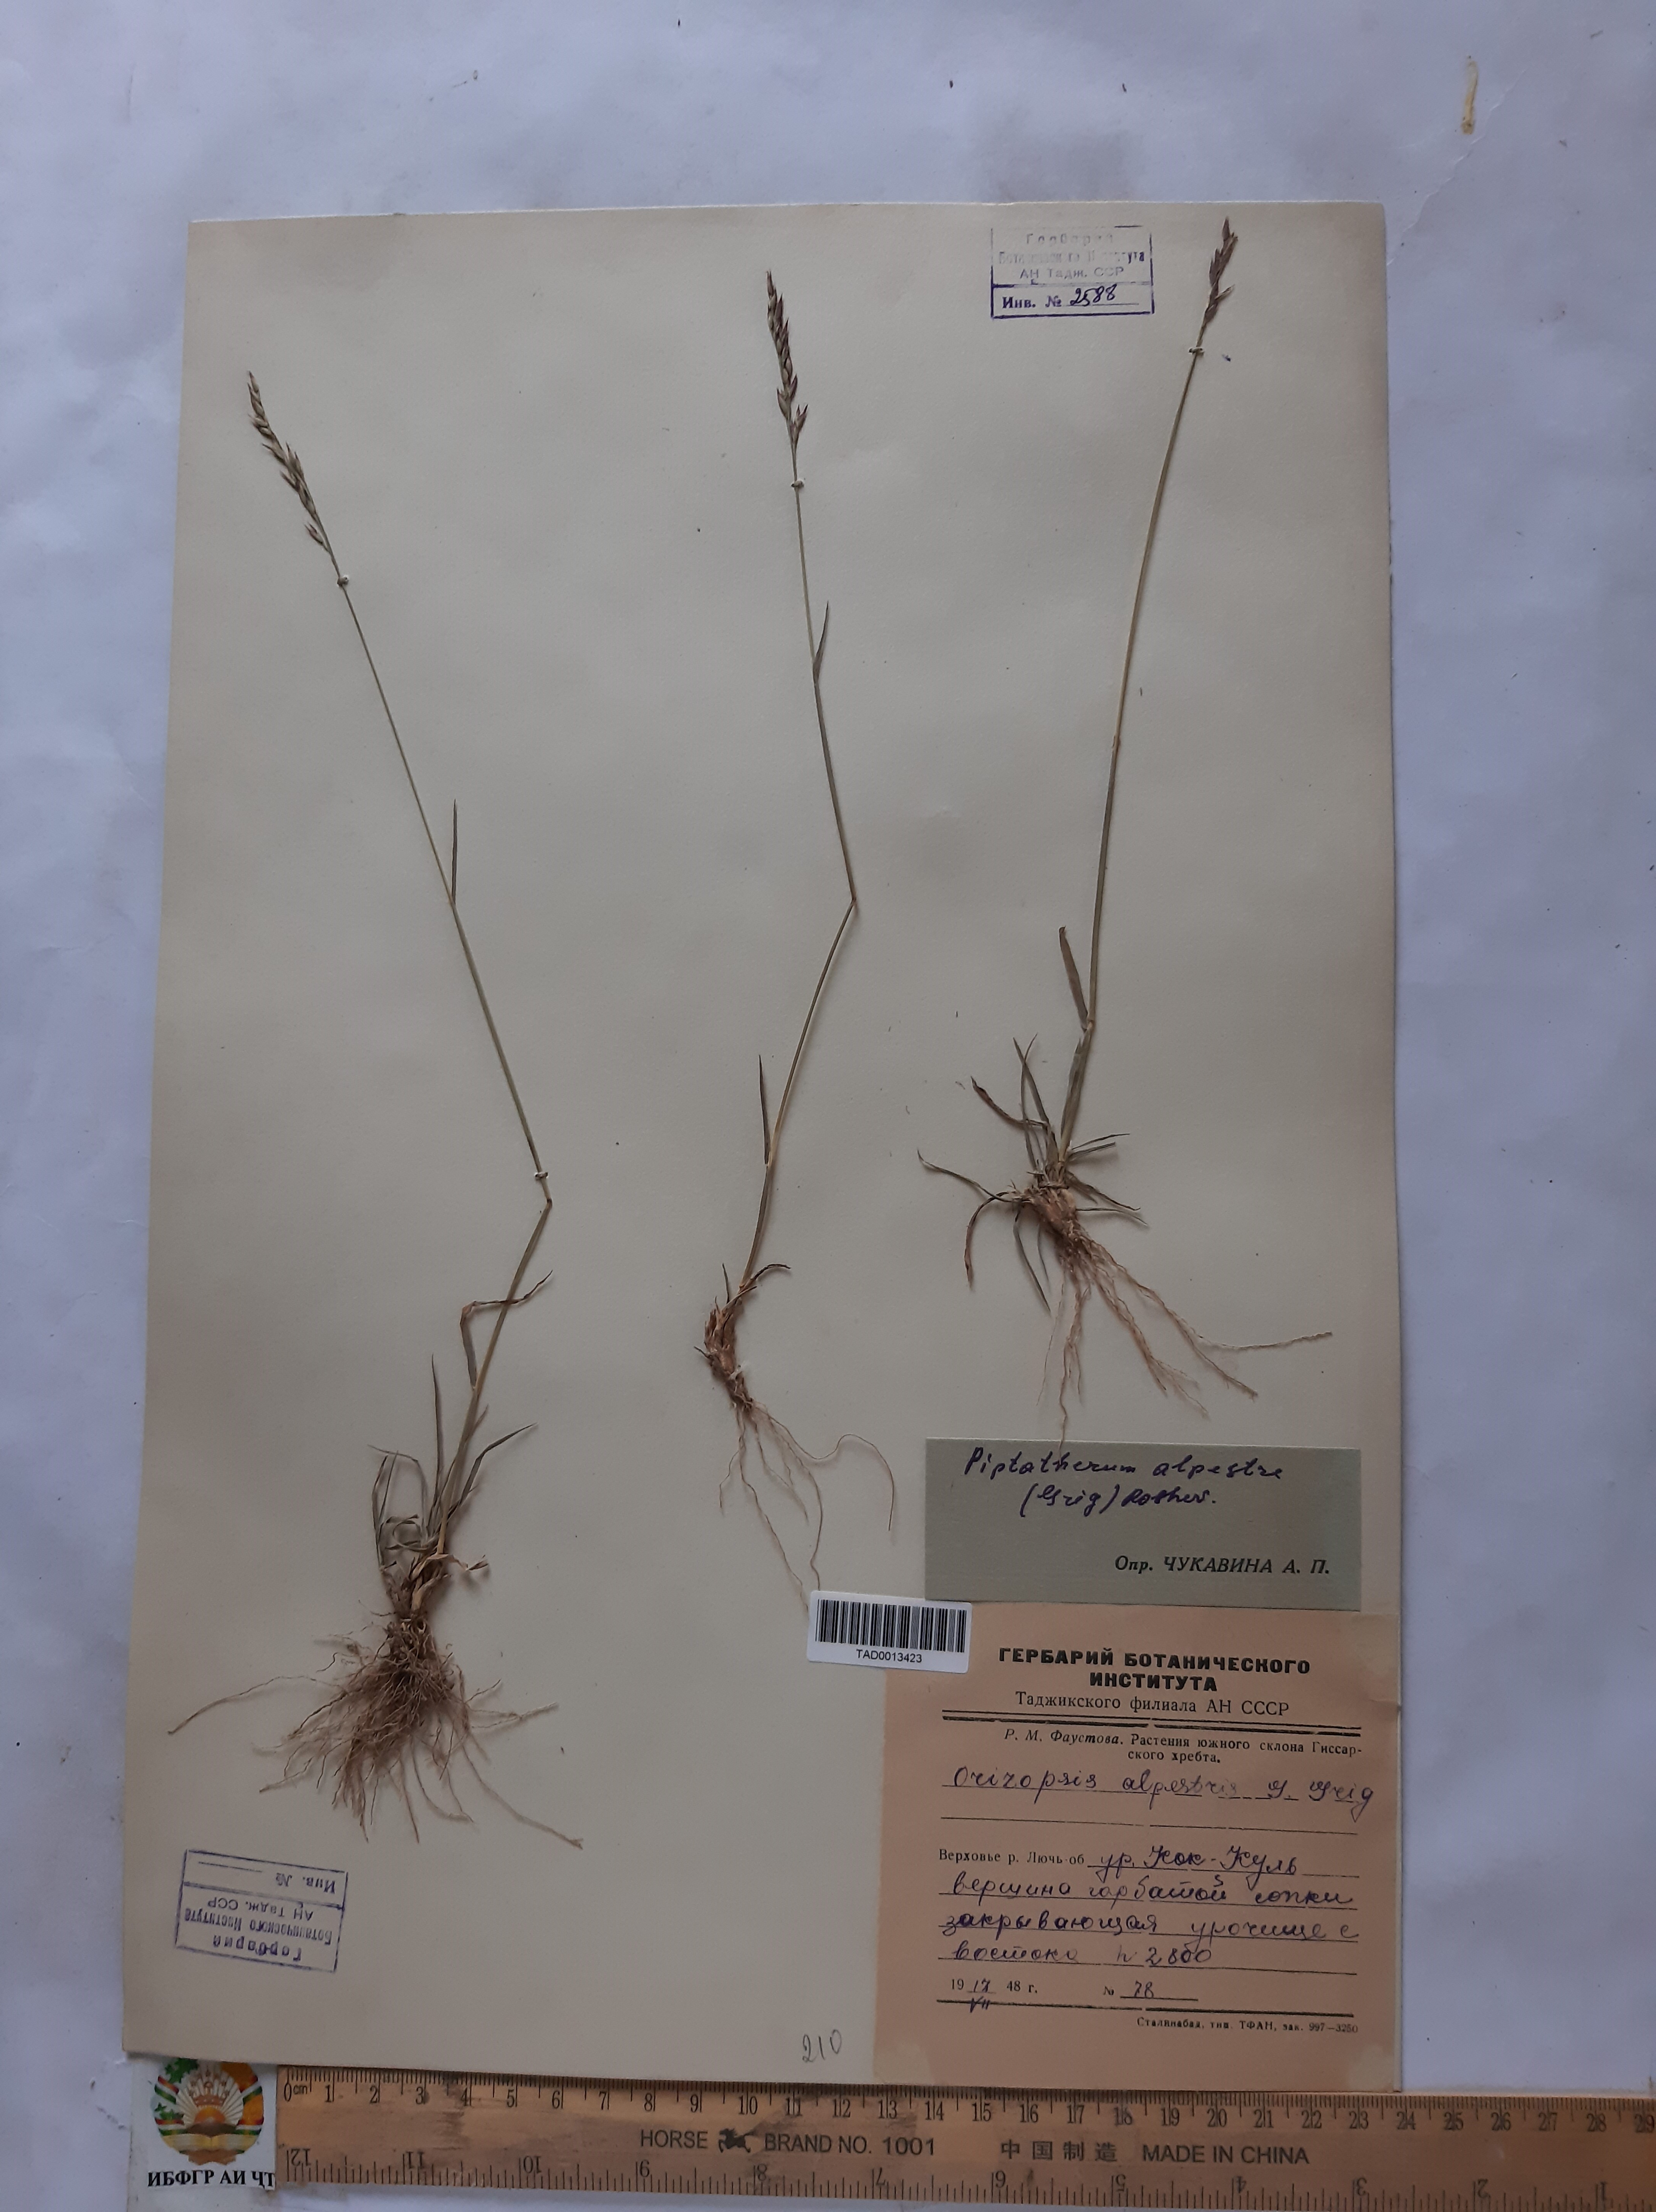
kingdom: Plantae
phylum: Tracheophyta
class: Liliopsida
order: Poales
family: Poaceae
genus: Piptatherum
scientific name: Piptatherum alpestre
